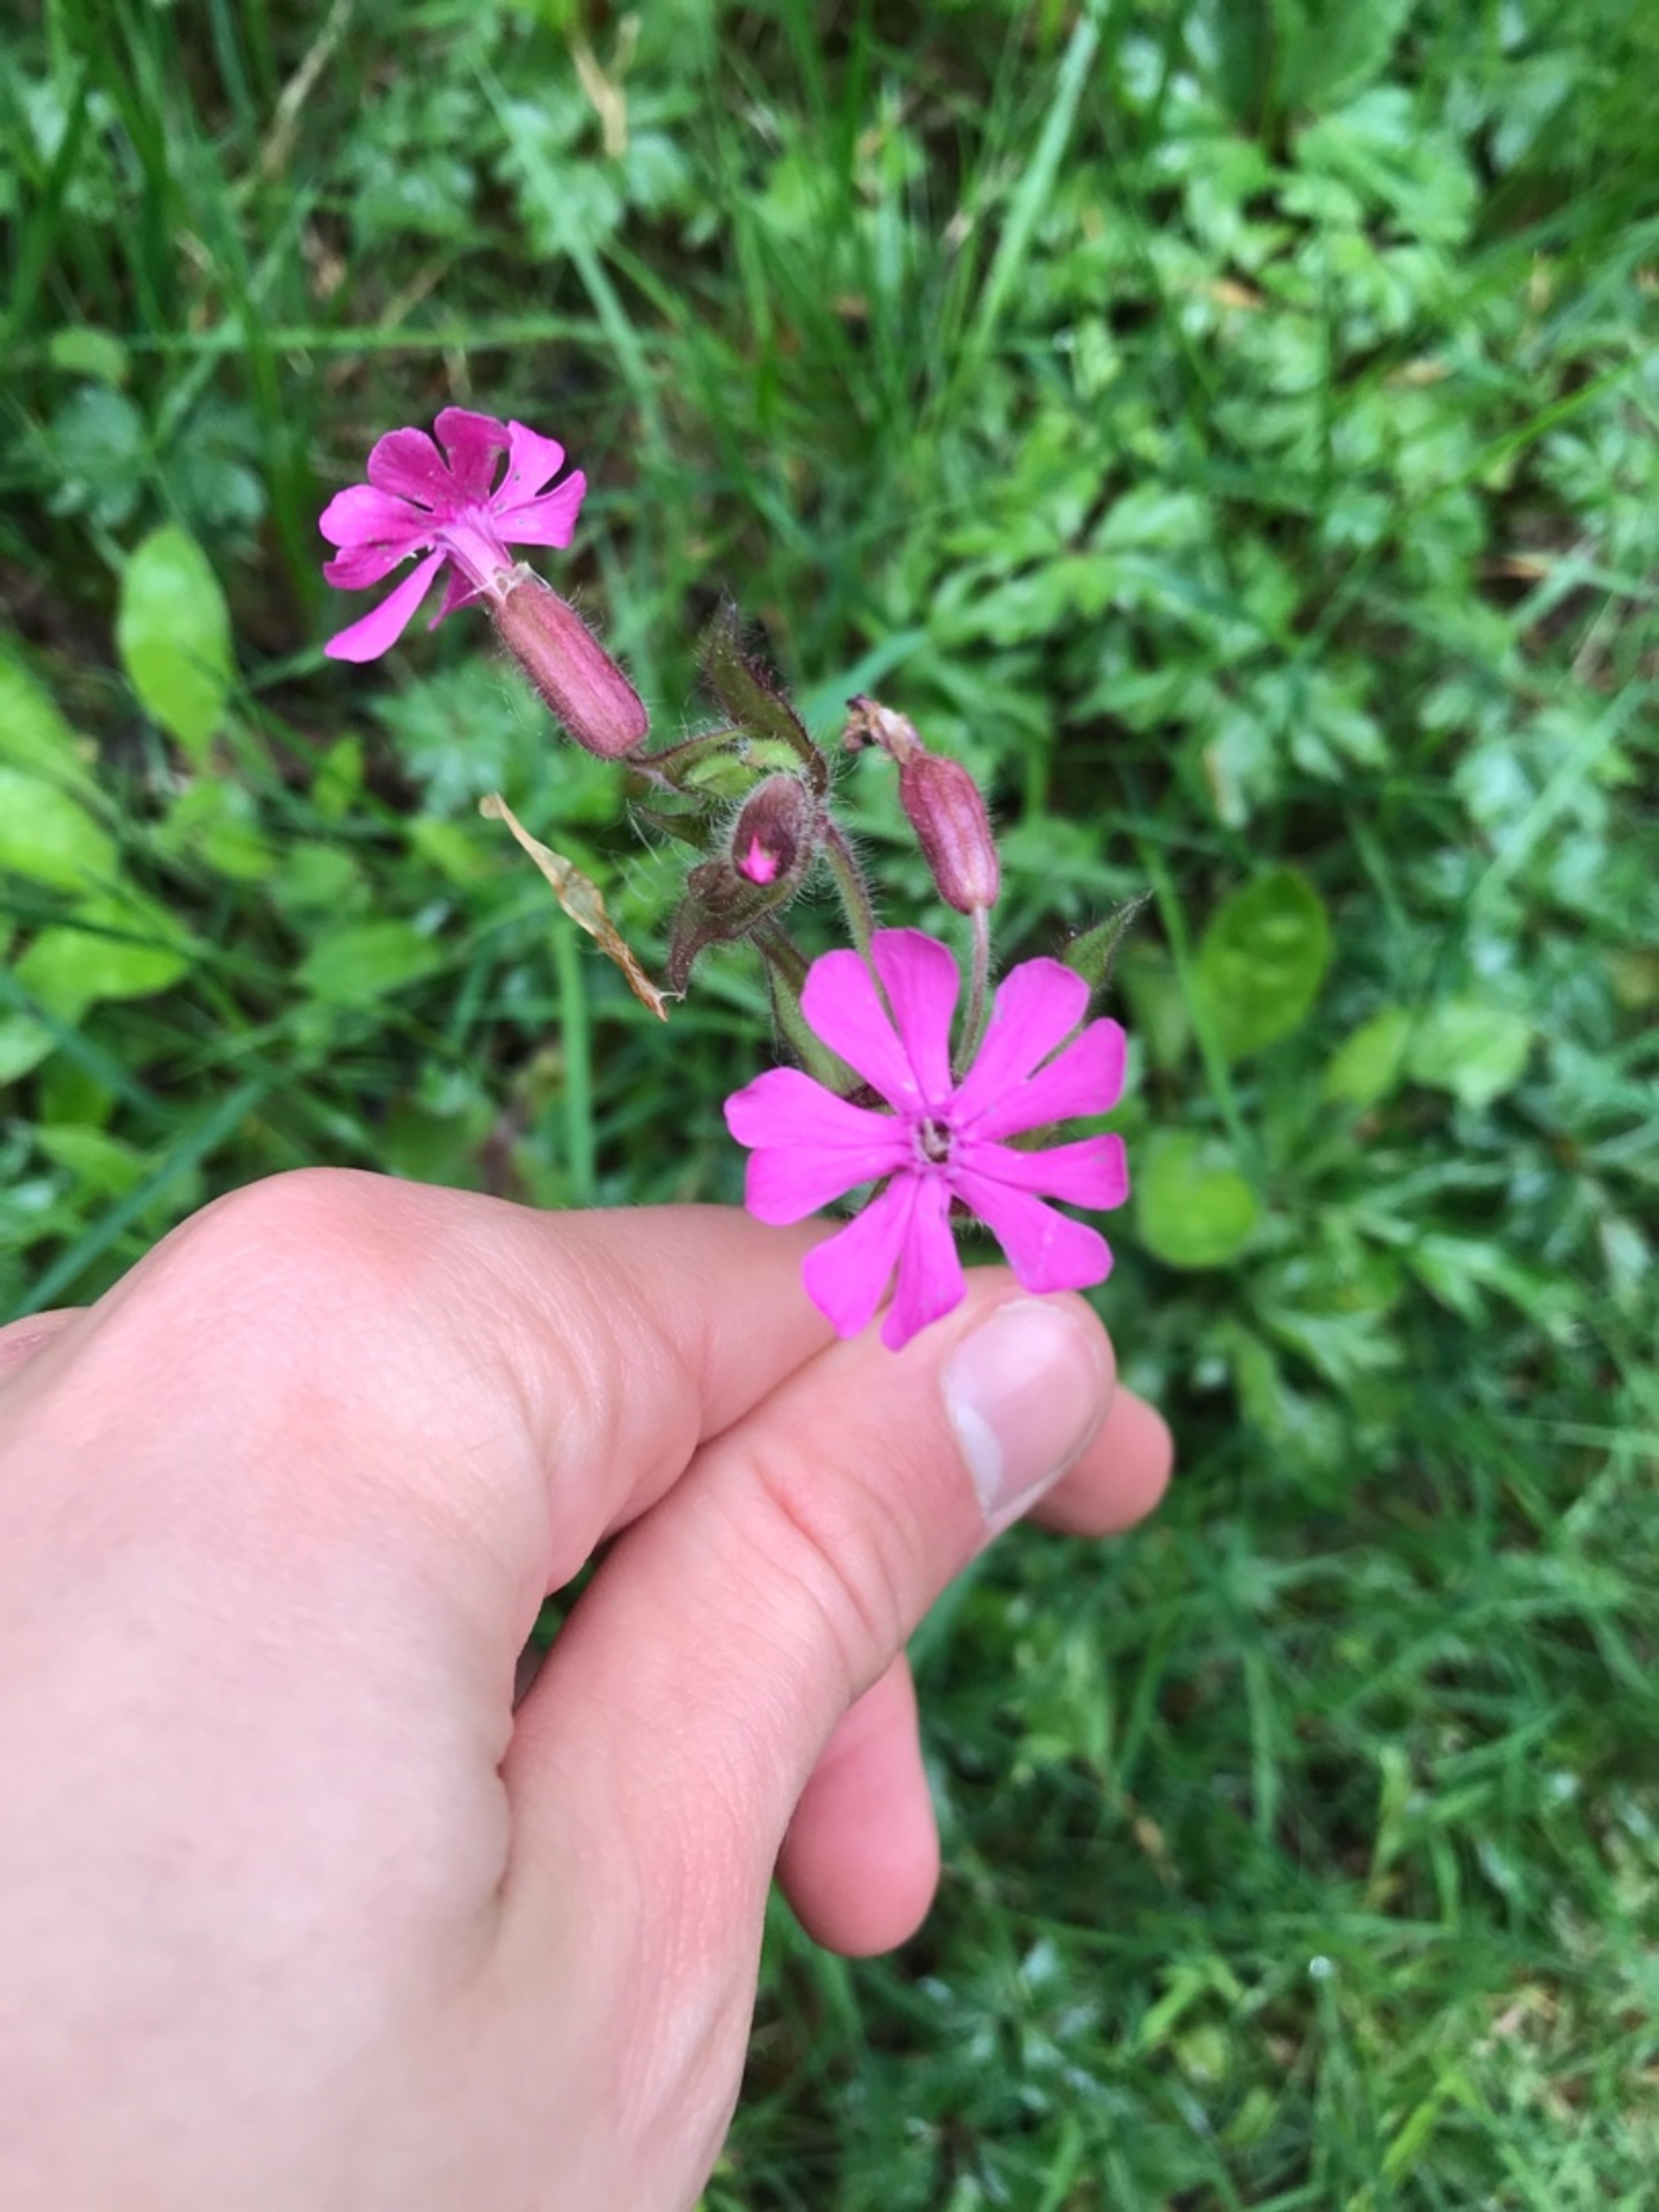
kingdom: Plantae
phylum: Tracheophyta
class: Magnoliopsida
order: Caryophyllales
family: Caryophyllaceae
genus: Silene
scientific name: Silene dioica
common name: Dagpragtstjerne
